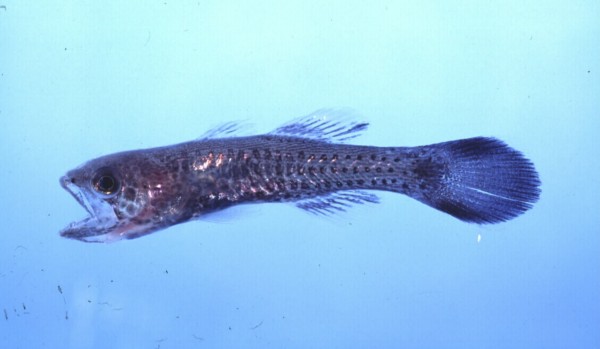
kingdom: Animalia
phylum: Chordata
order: Perciformes
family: Apogonidae
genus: Pseudamia
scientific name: Pseudamia gelatinosa
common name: Gelatinous cardinalfish
